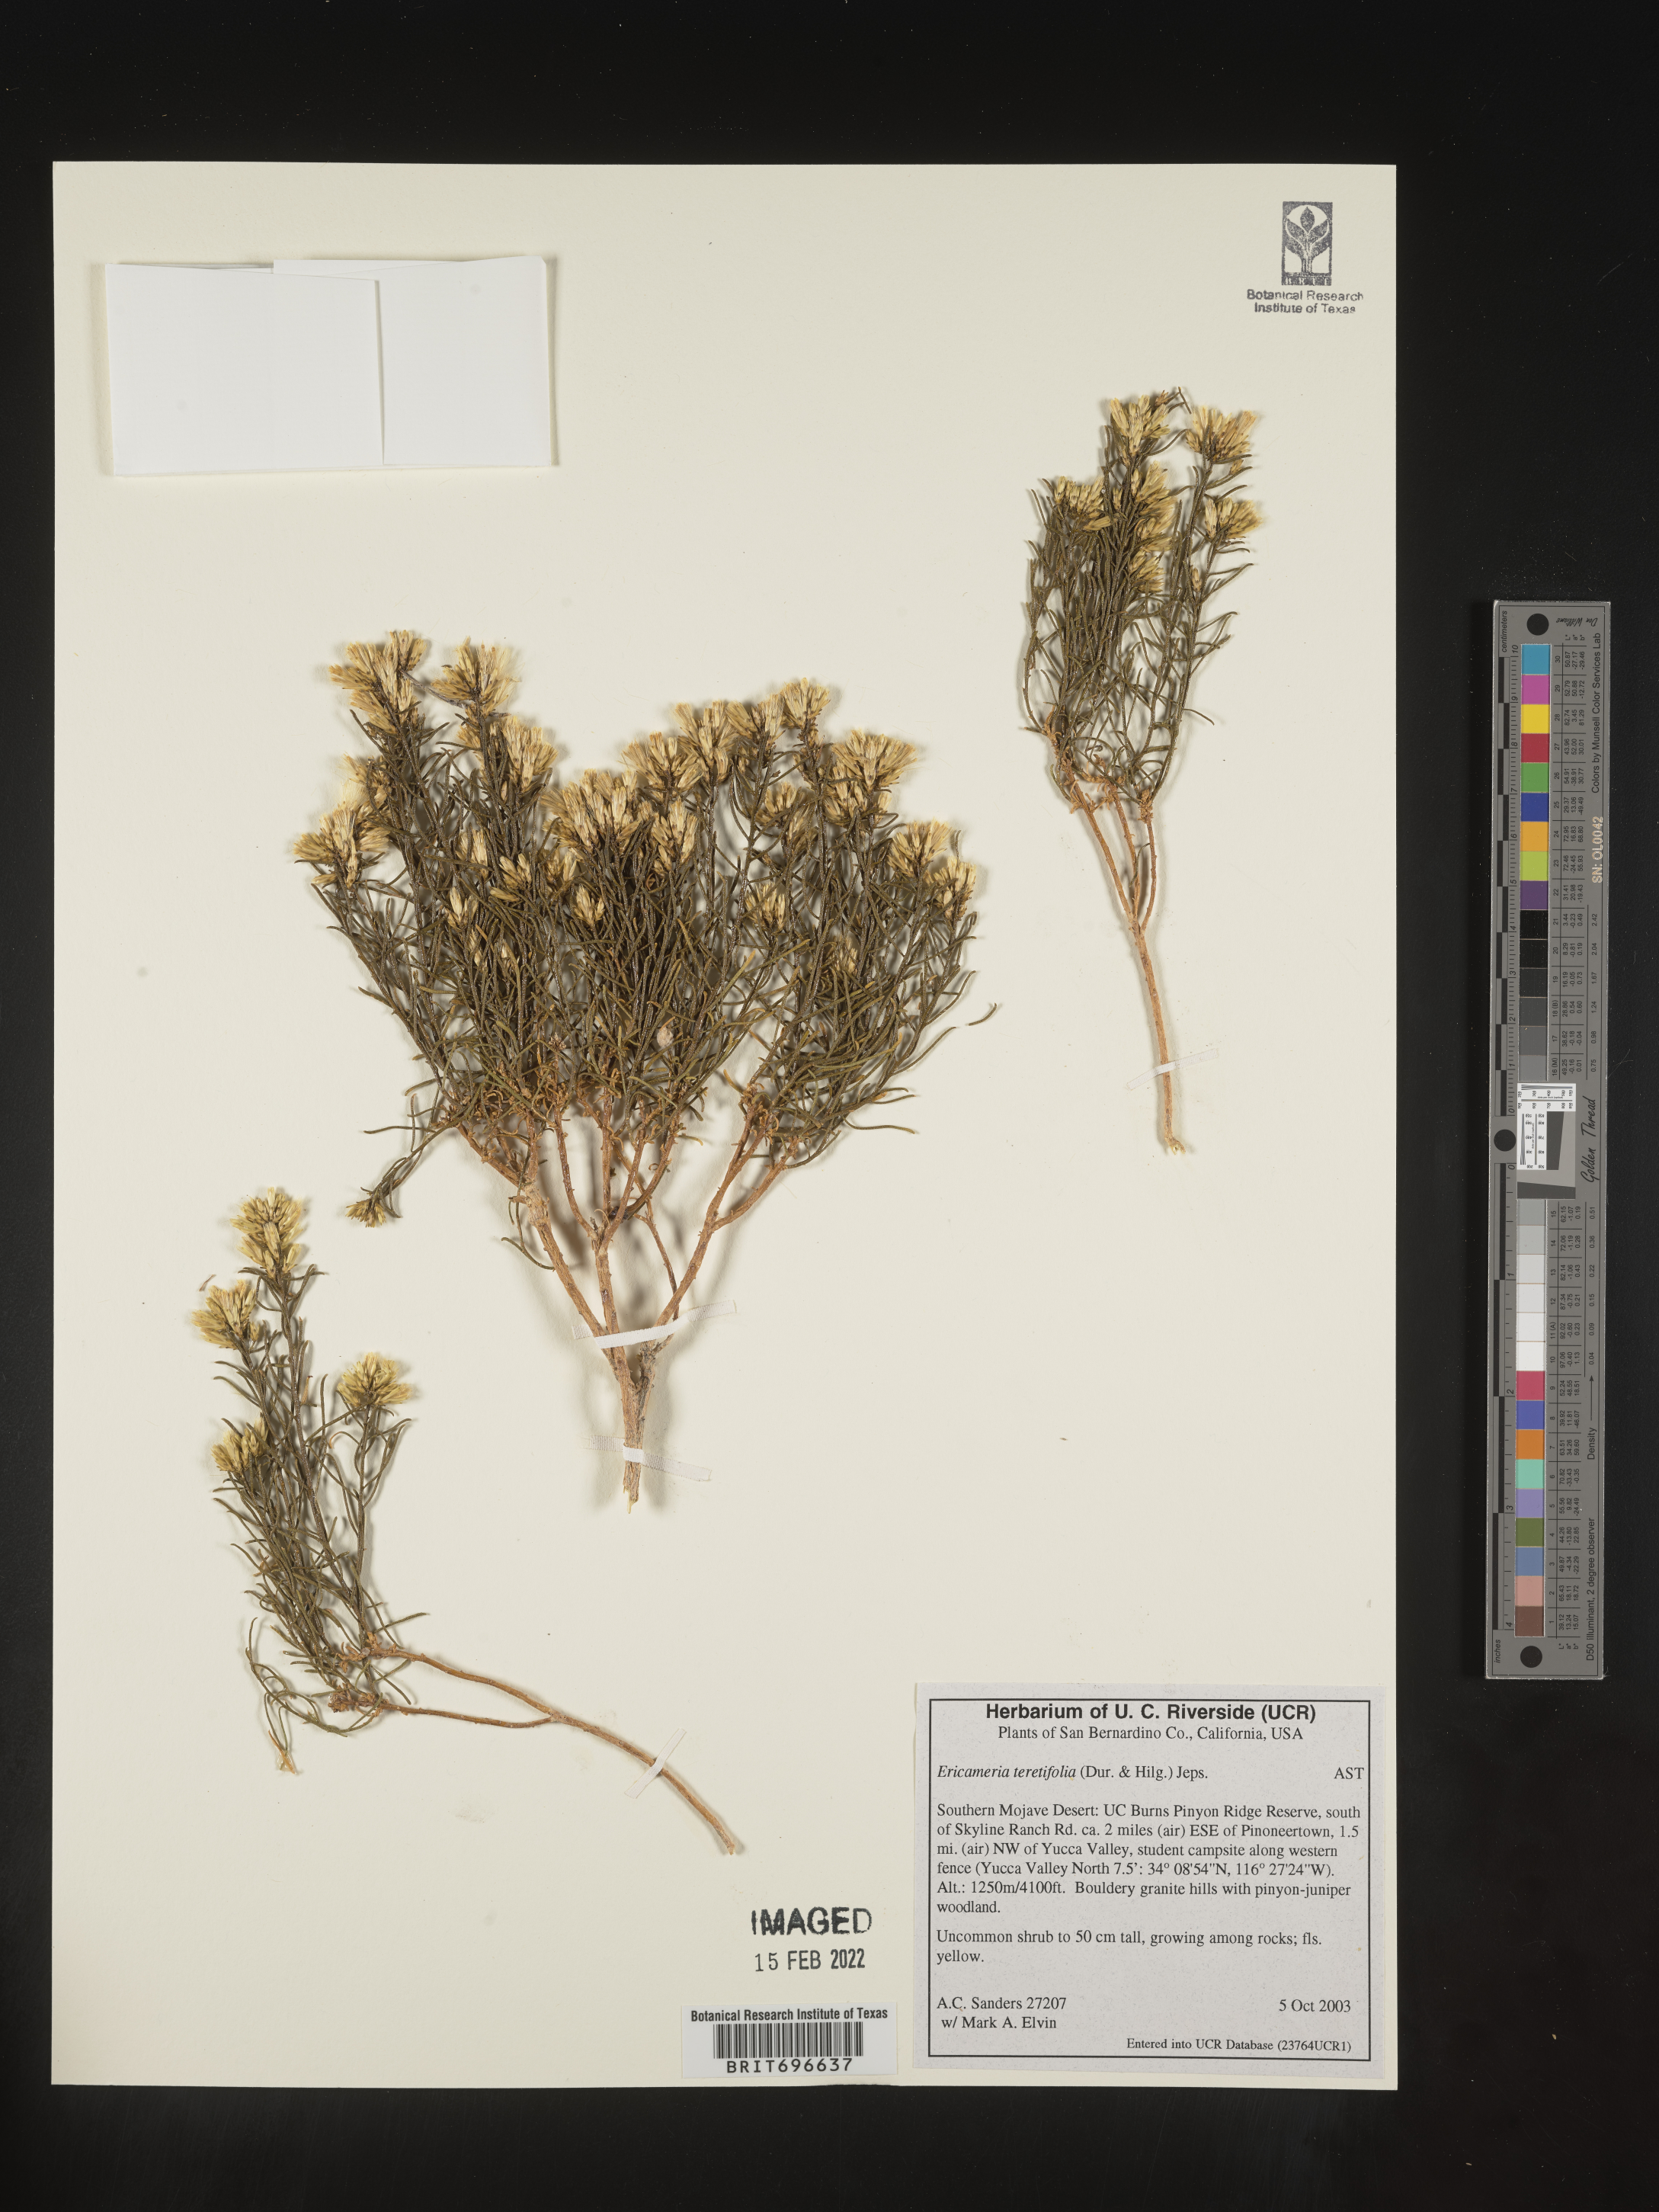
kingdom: Plantae
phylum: Tracheophyta
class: Magnoliopsida
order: Asterales
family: Asteraceae
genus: Ericameria
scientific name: Ericameria teretifolia
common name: Round-leaf rabbitbrush
